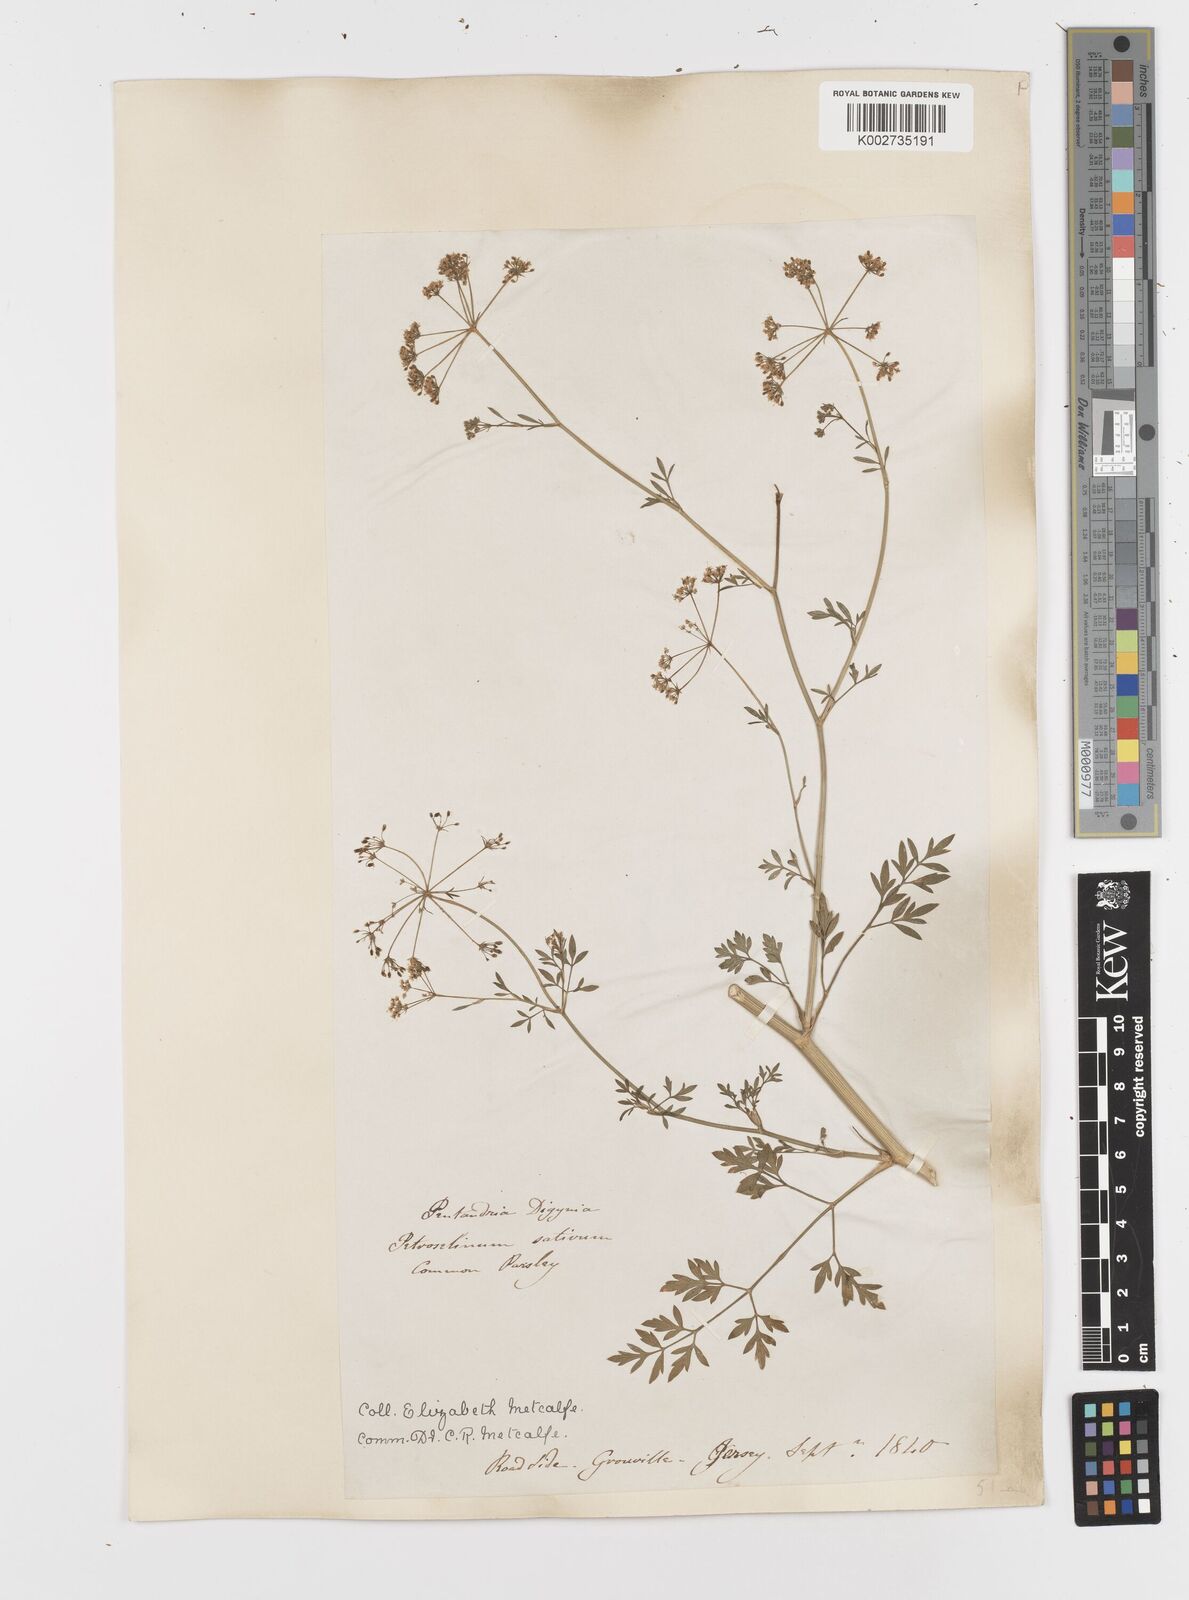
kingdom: Plantae
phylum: Tracheophyta
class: Magnoliopsida
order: Apiales
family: Apiaceae
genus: Petroselinum
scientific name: Petroselinum crispum
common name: Parsley
